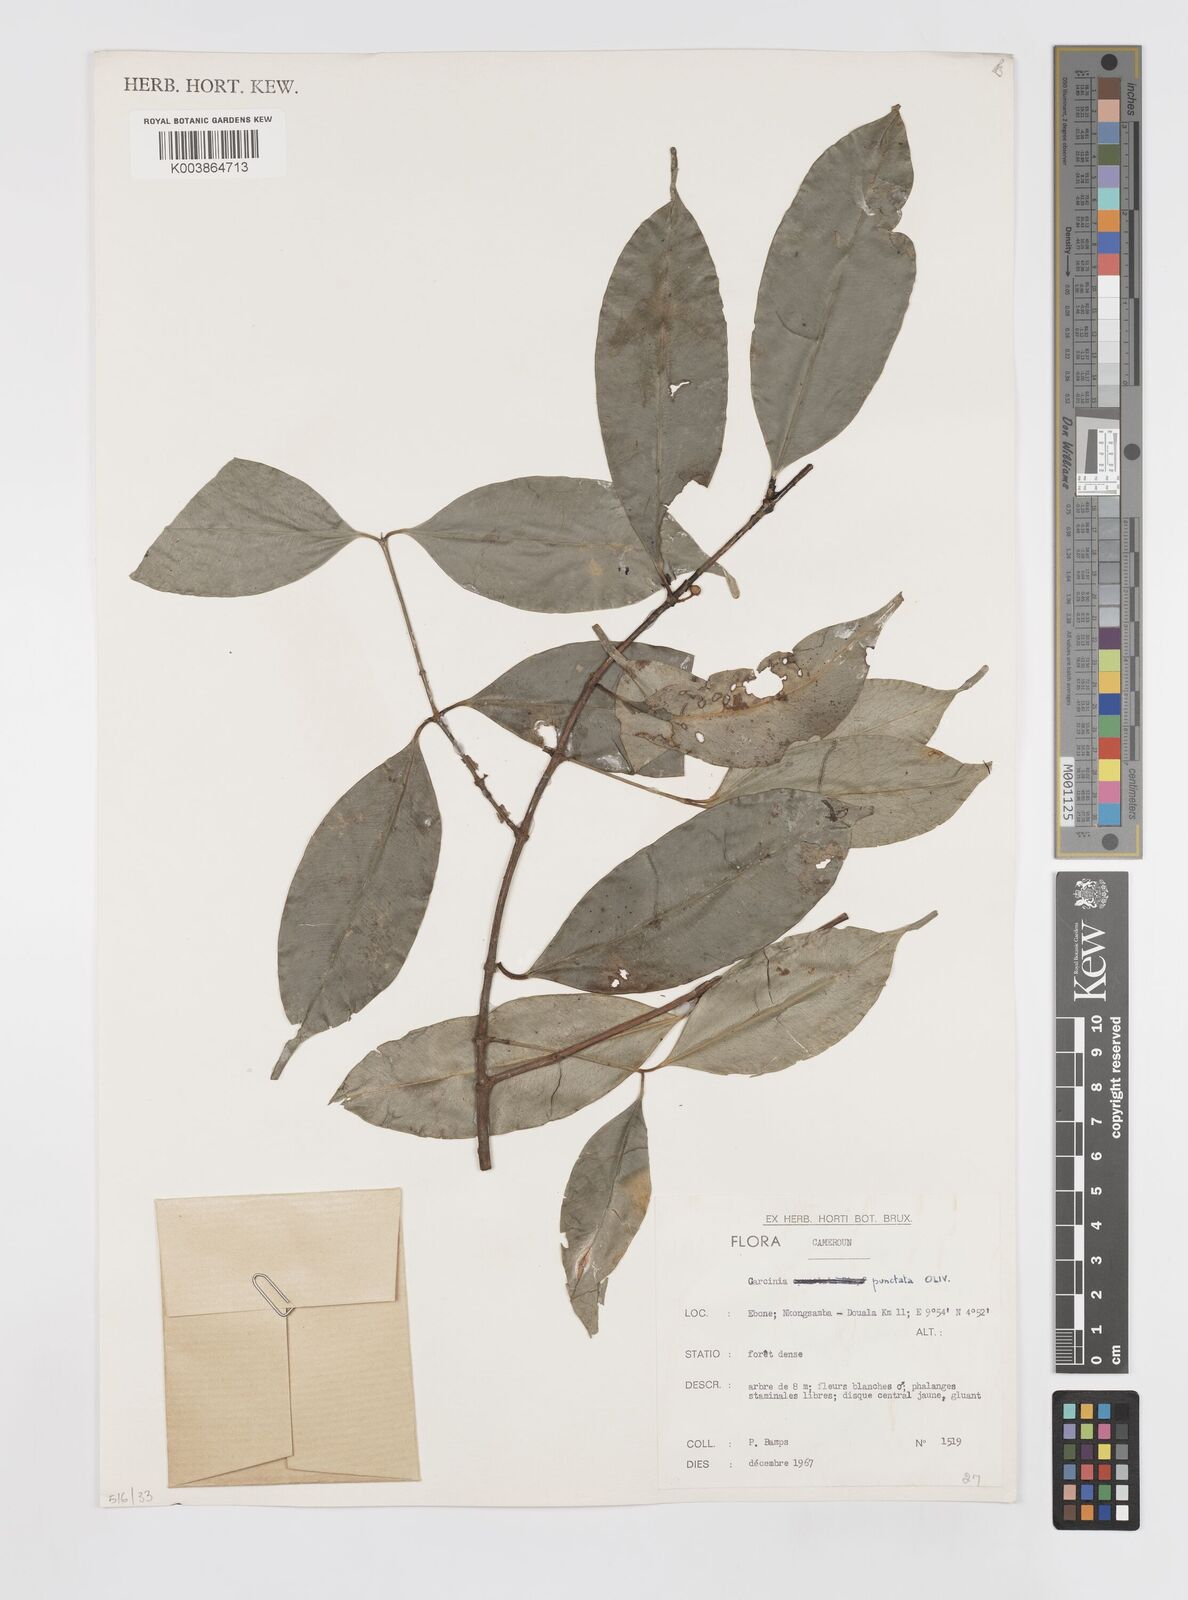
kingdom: Plantae
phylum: Tracheophyta
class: Magnoliopsida
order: Malpighiales
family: Clusiaceae
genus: Garcinia
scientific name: Garcinia punctata
